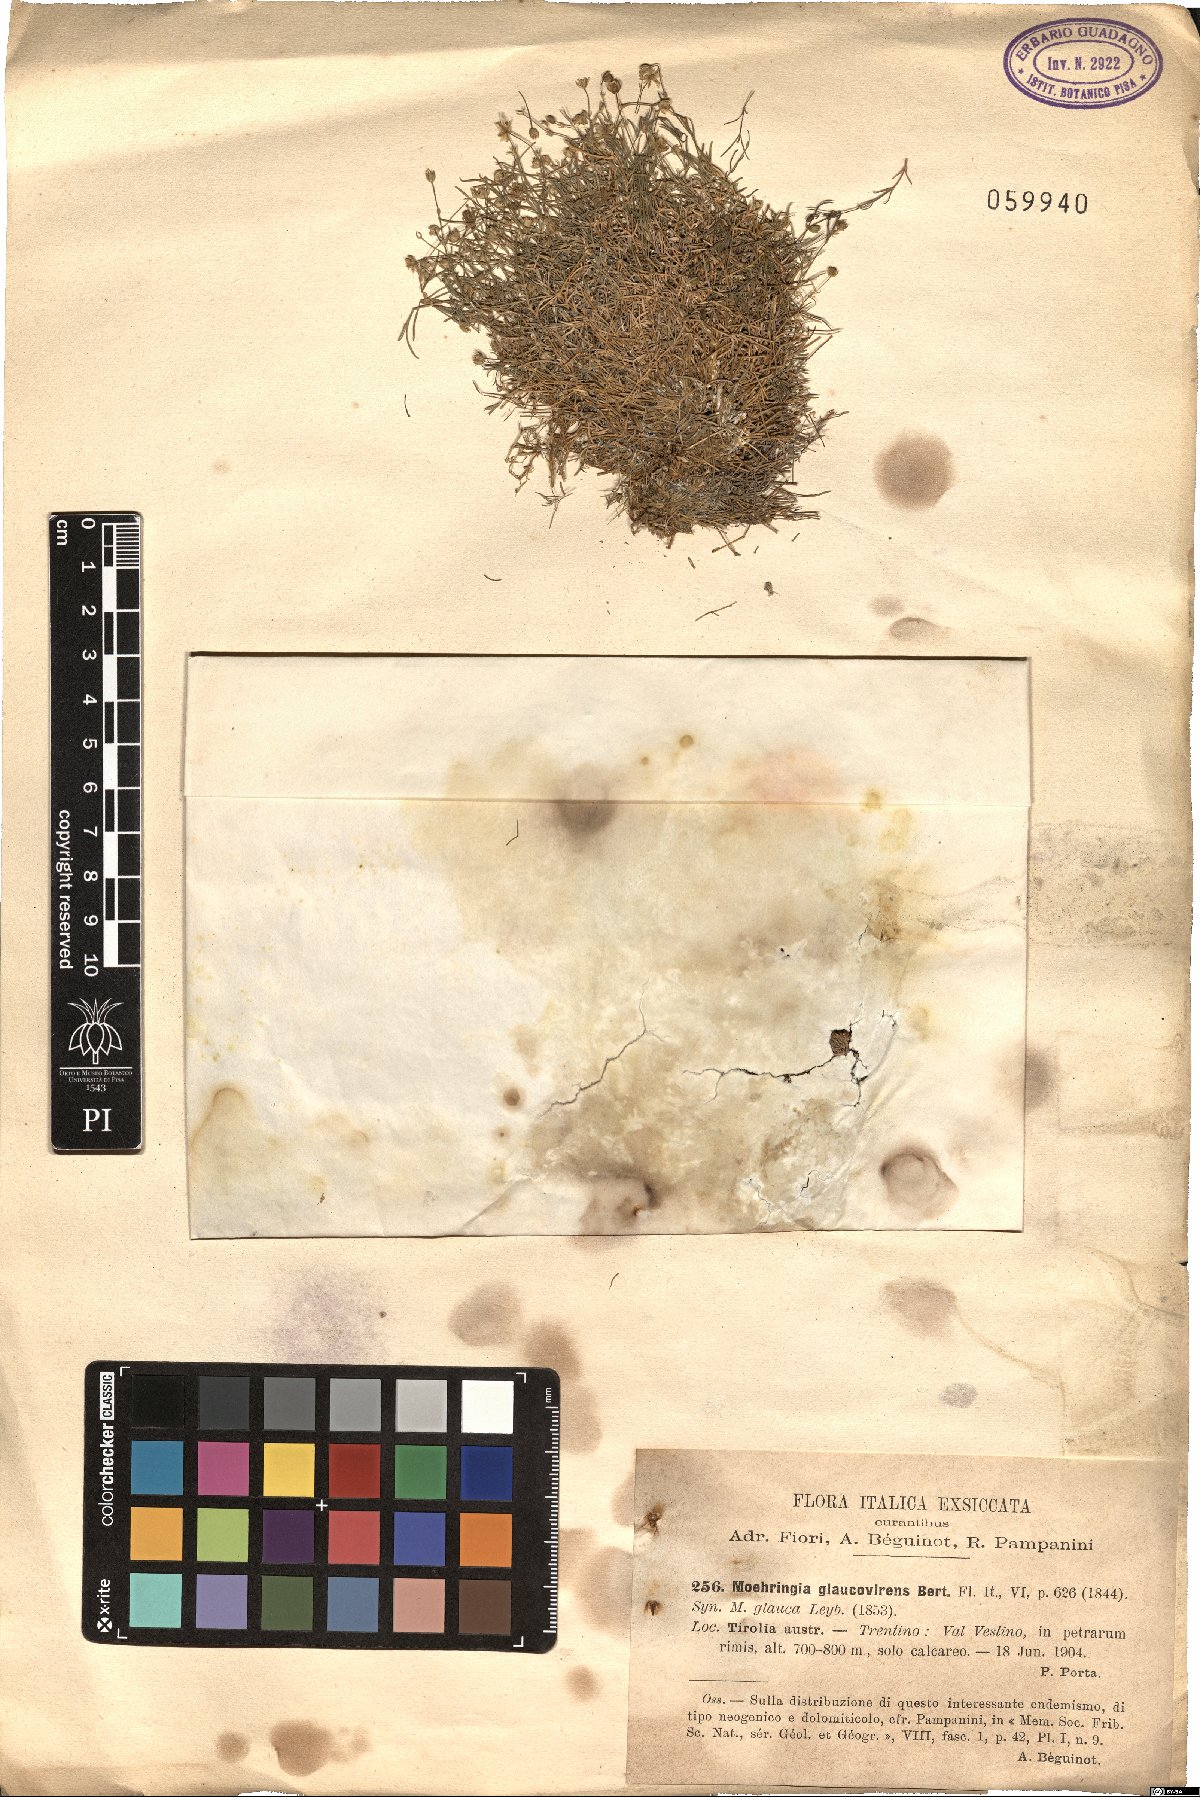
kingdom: Plantae
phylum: Tracheophyta
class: Magnoliopsida
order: Caryophyllales
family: Caryophyllaceae
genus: Moehringia
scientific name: Moehringia glaucovirens
